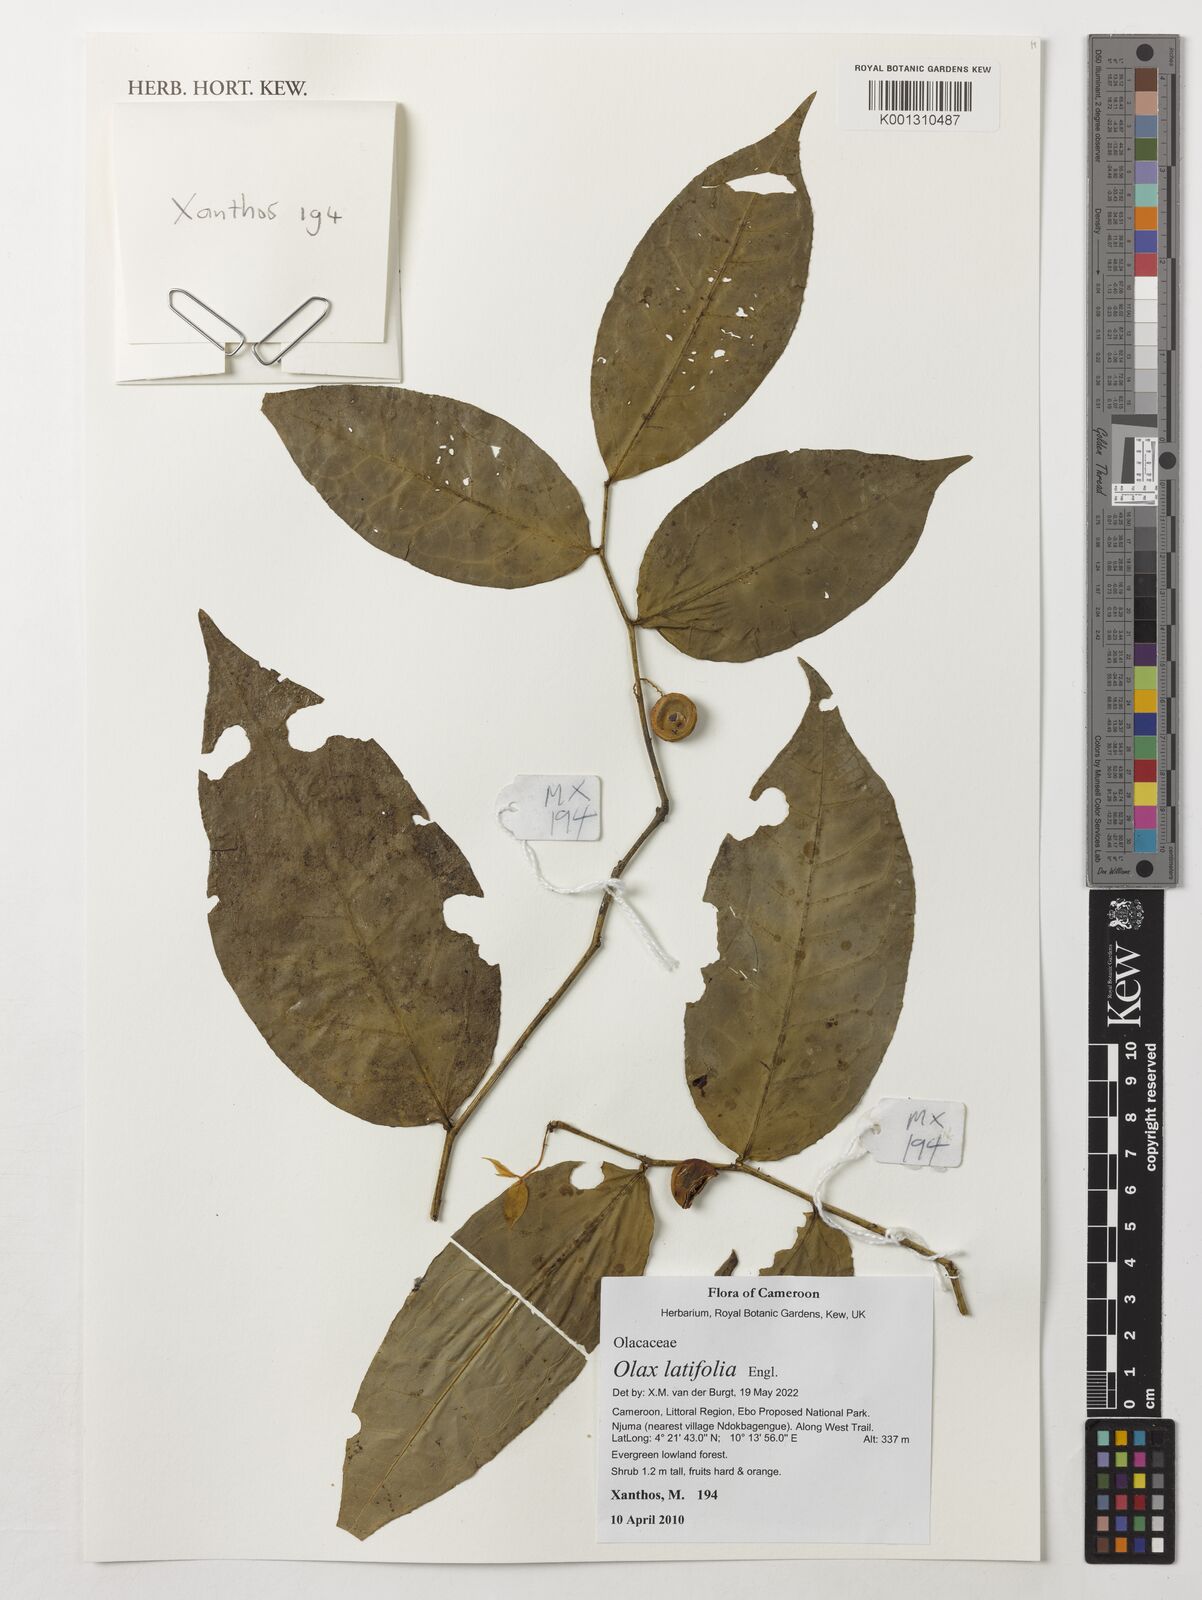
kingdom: Plantae
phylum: Tracheophyta
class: Magnoliopsida
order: Santalales
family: Olacaceae
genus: Olax
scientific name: Olax latifolia
